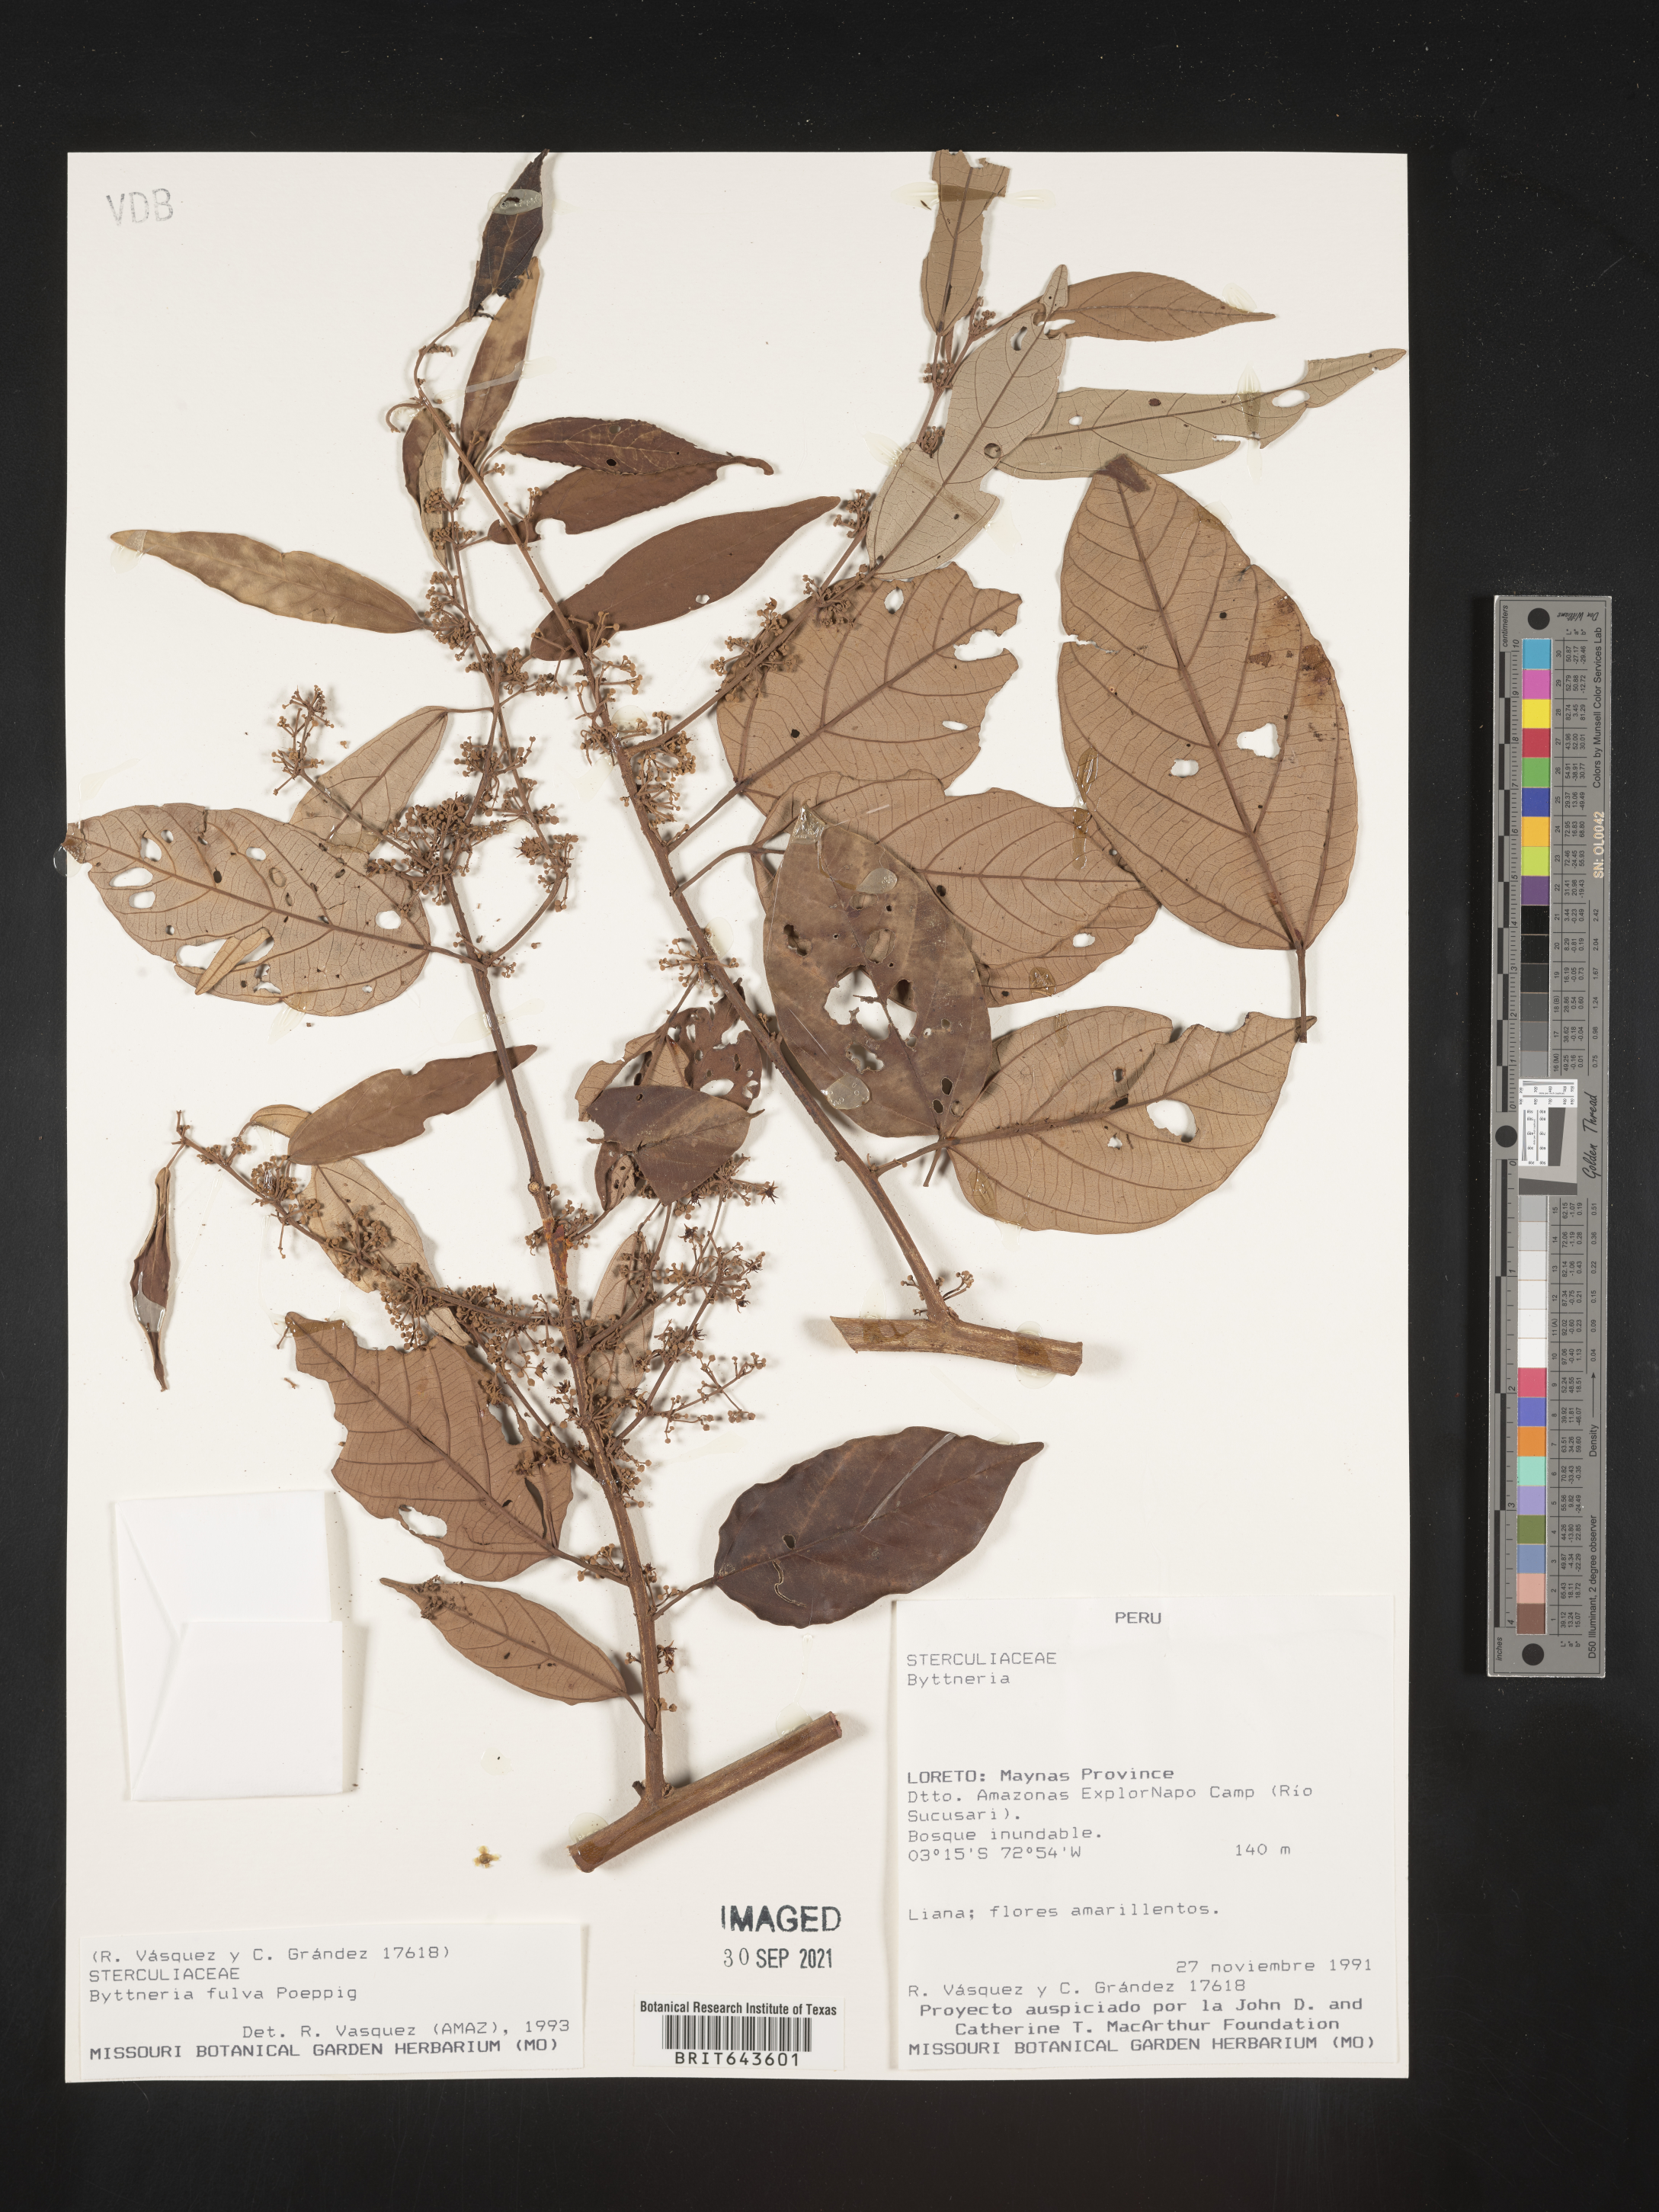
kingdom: Plantae
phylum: Tracheophyta
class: Magnoliopsida
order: Malvales
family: Malvaceae
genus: Byttneria
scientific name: Byttneria
